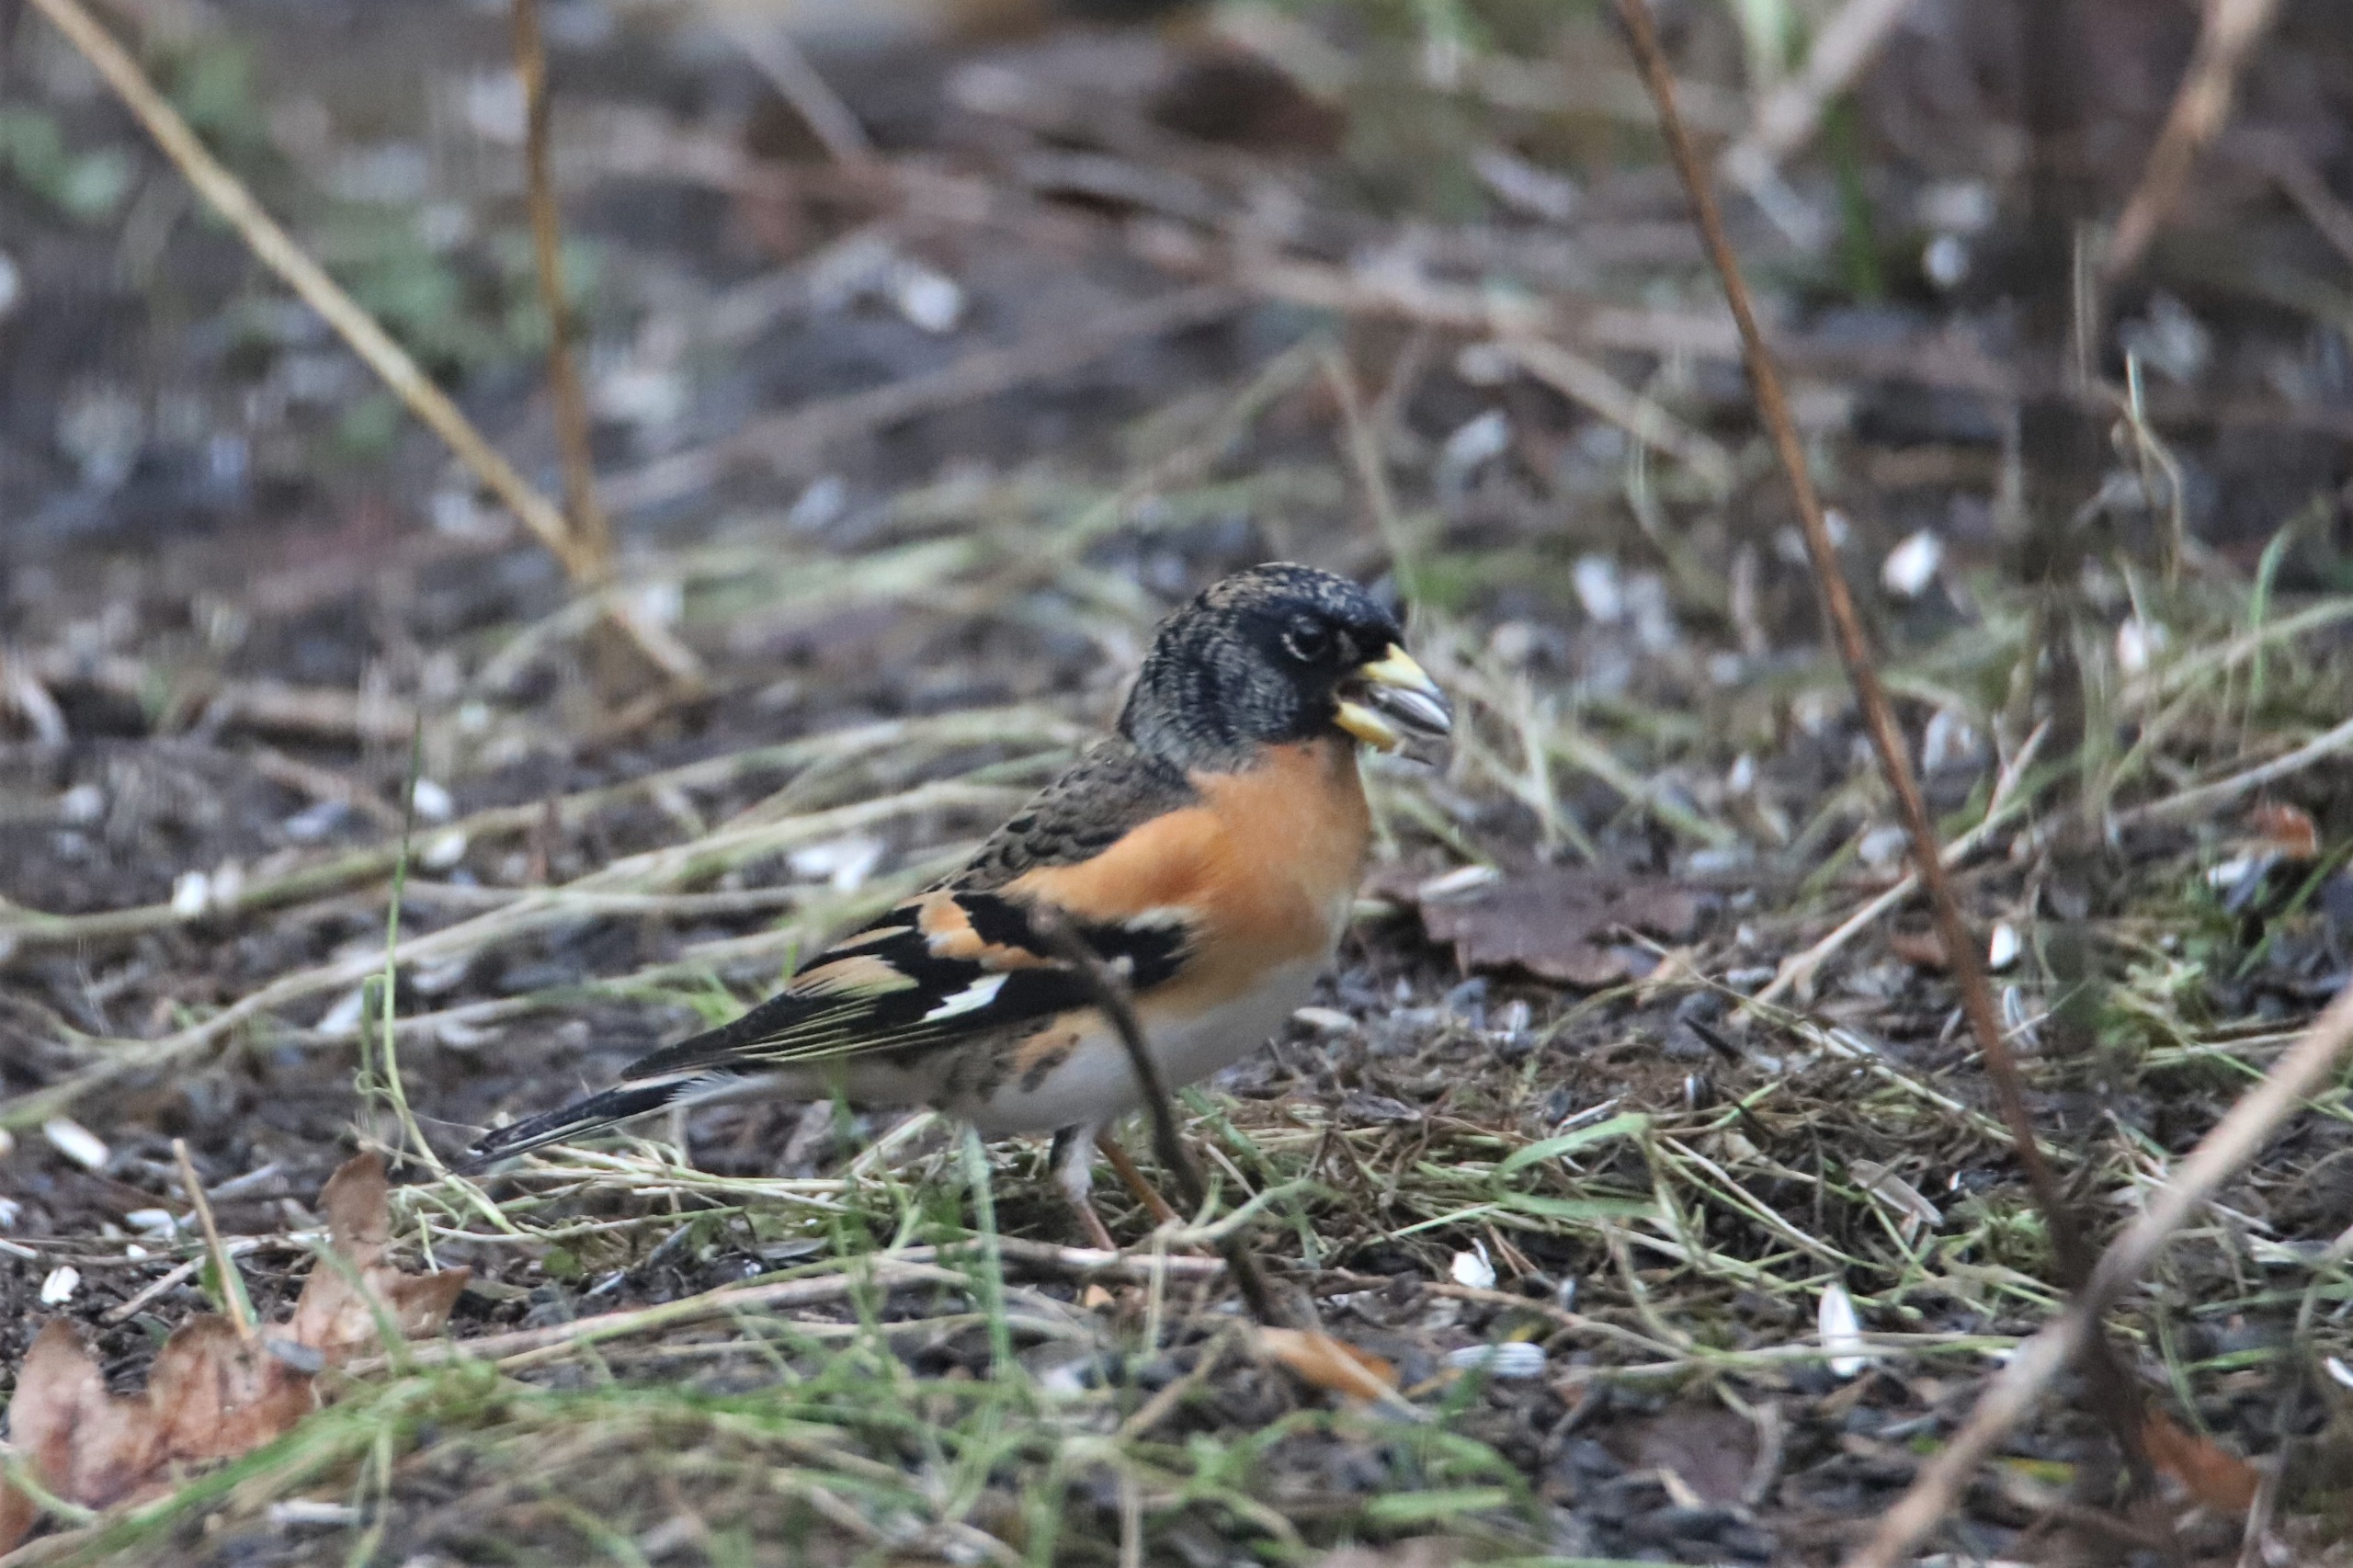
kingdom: Animalia
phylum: Chordata
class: Aves
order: Passeriformes
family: Fringillidae
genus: Fringilla
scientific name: Fringilla montifringilla
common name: Kvækerfinke
